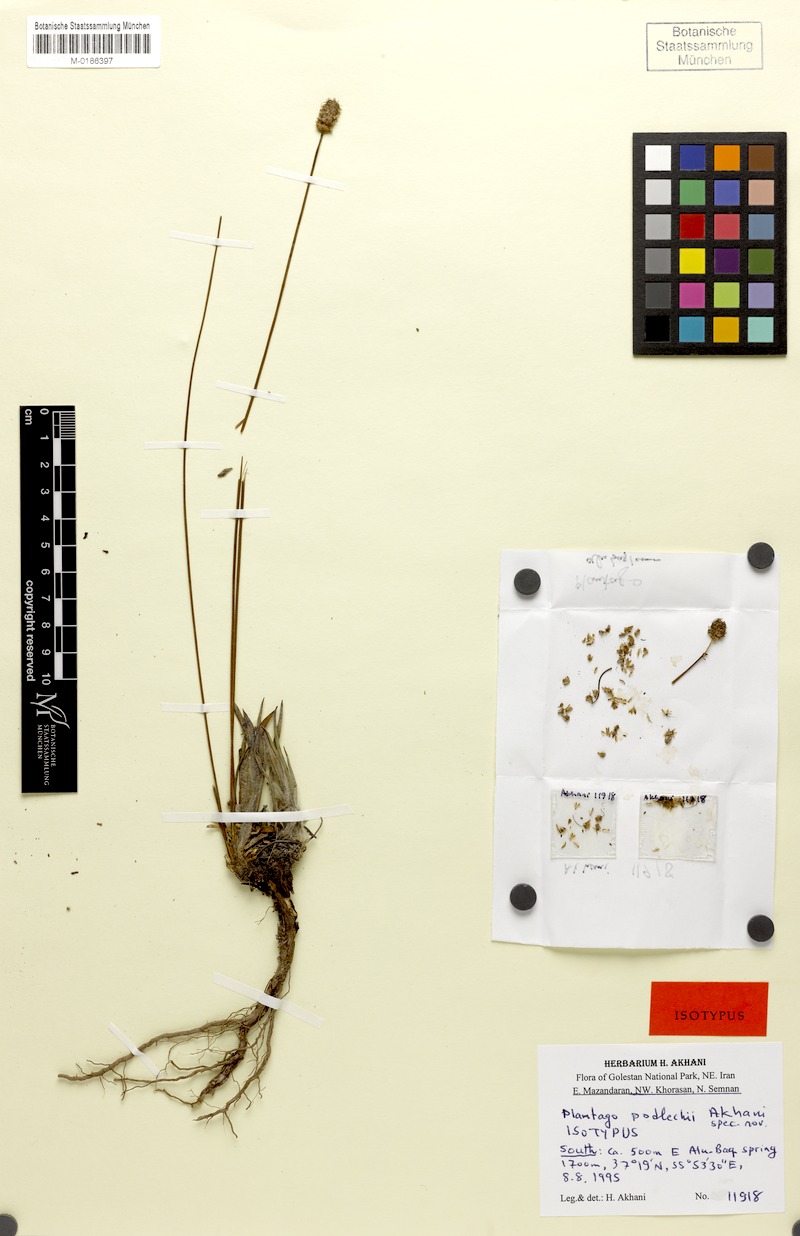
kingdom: Plantae
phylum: Tracheophyta
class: Magnoliopsida
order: Lamiales
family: Plantaginaceae
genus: Plantago
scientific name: Plantago lanceolata
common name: Ribwort plantain
